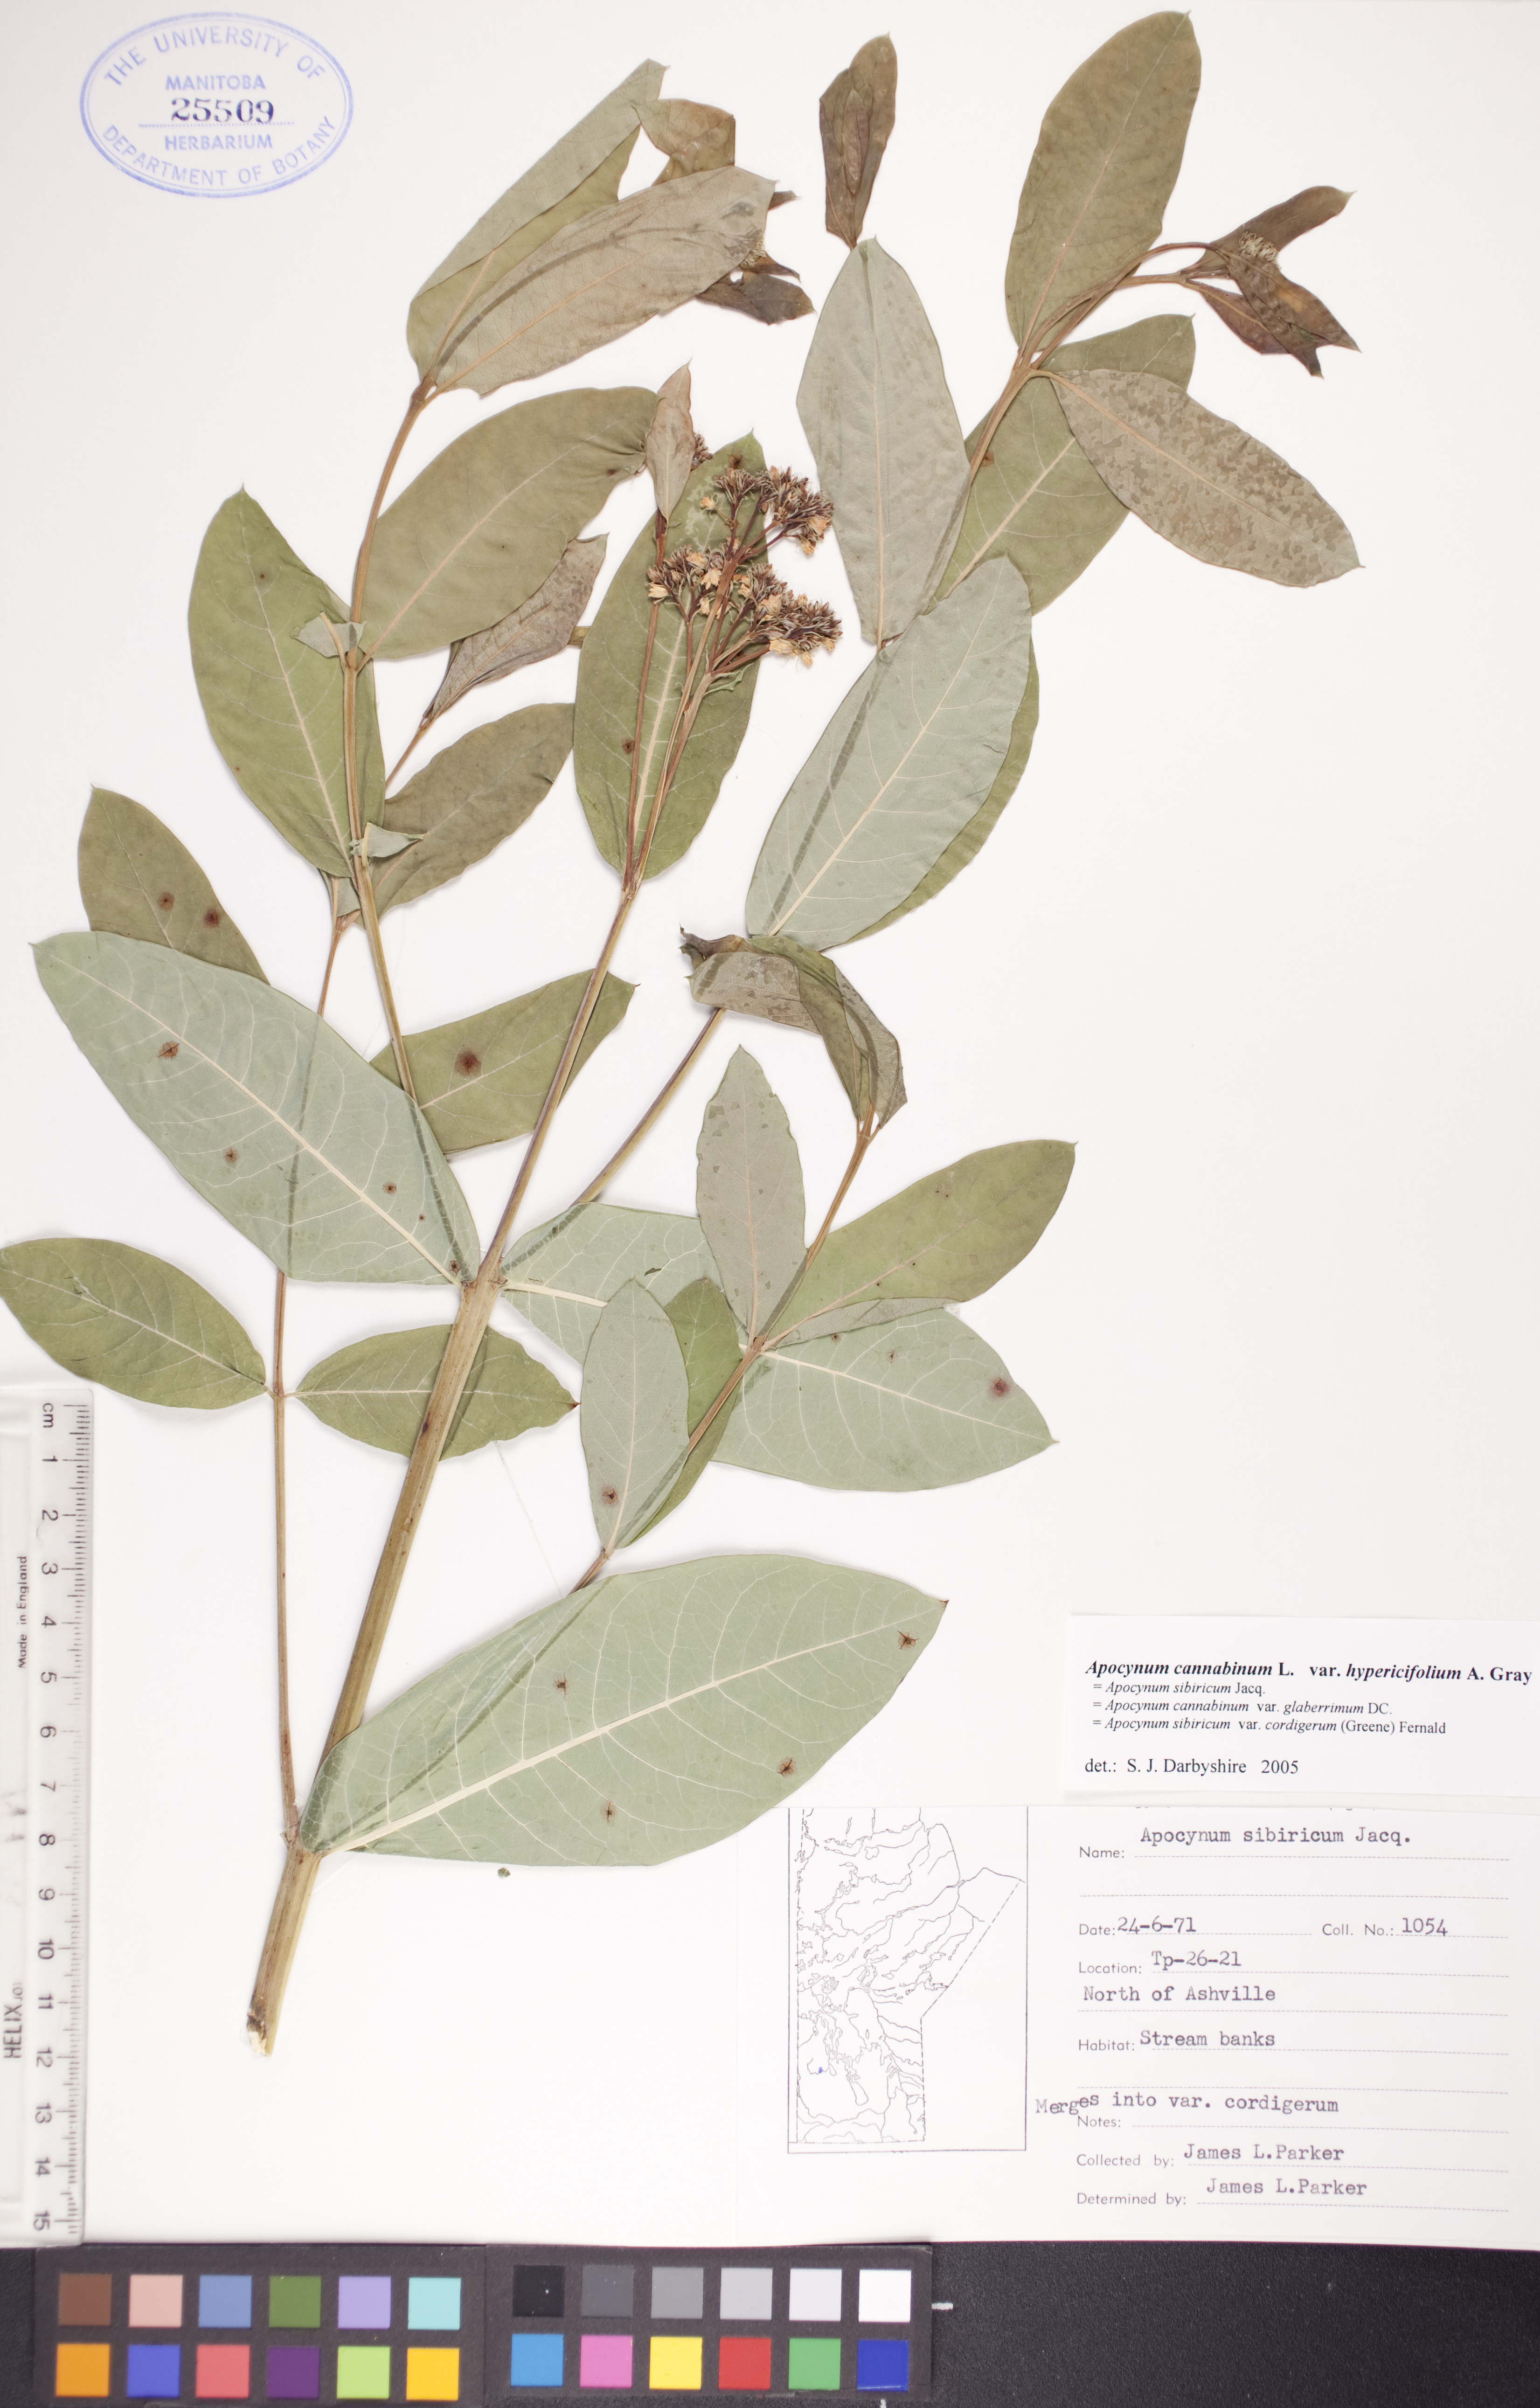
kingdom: Plantae
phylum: Tracheophyta
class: Magnoliopsida
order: Gentianales
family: Apocynaceae
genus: Apocynum
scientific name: Apocynum cannabinum
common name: Hemp dogbane
